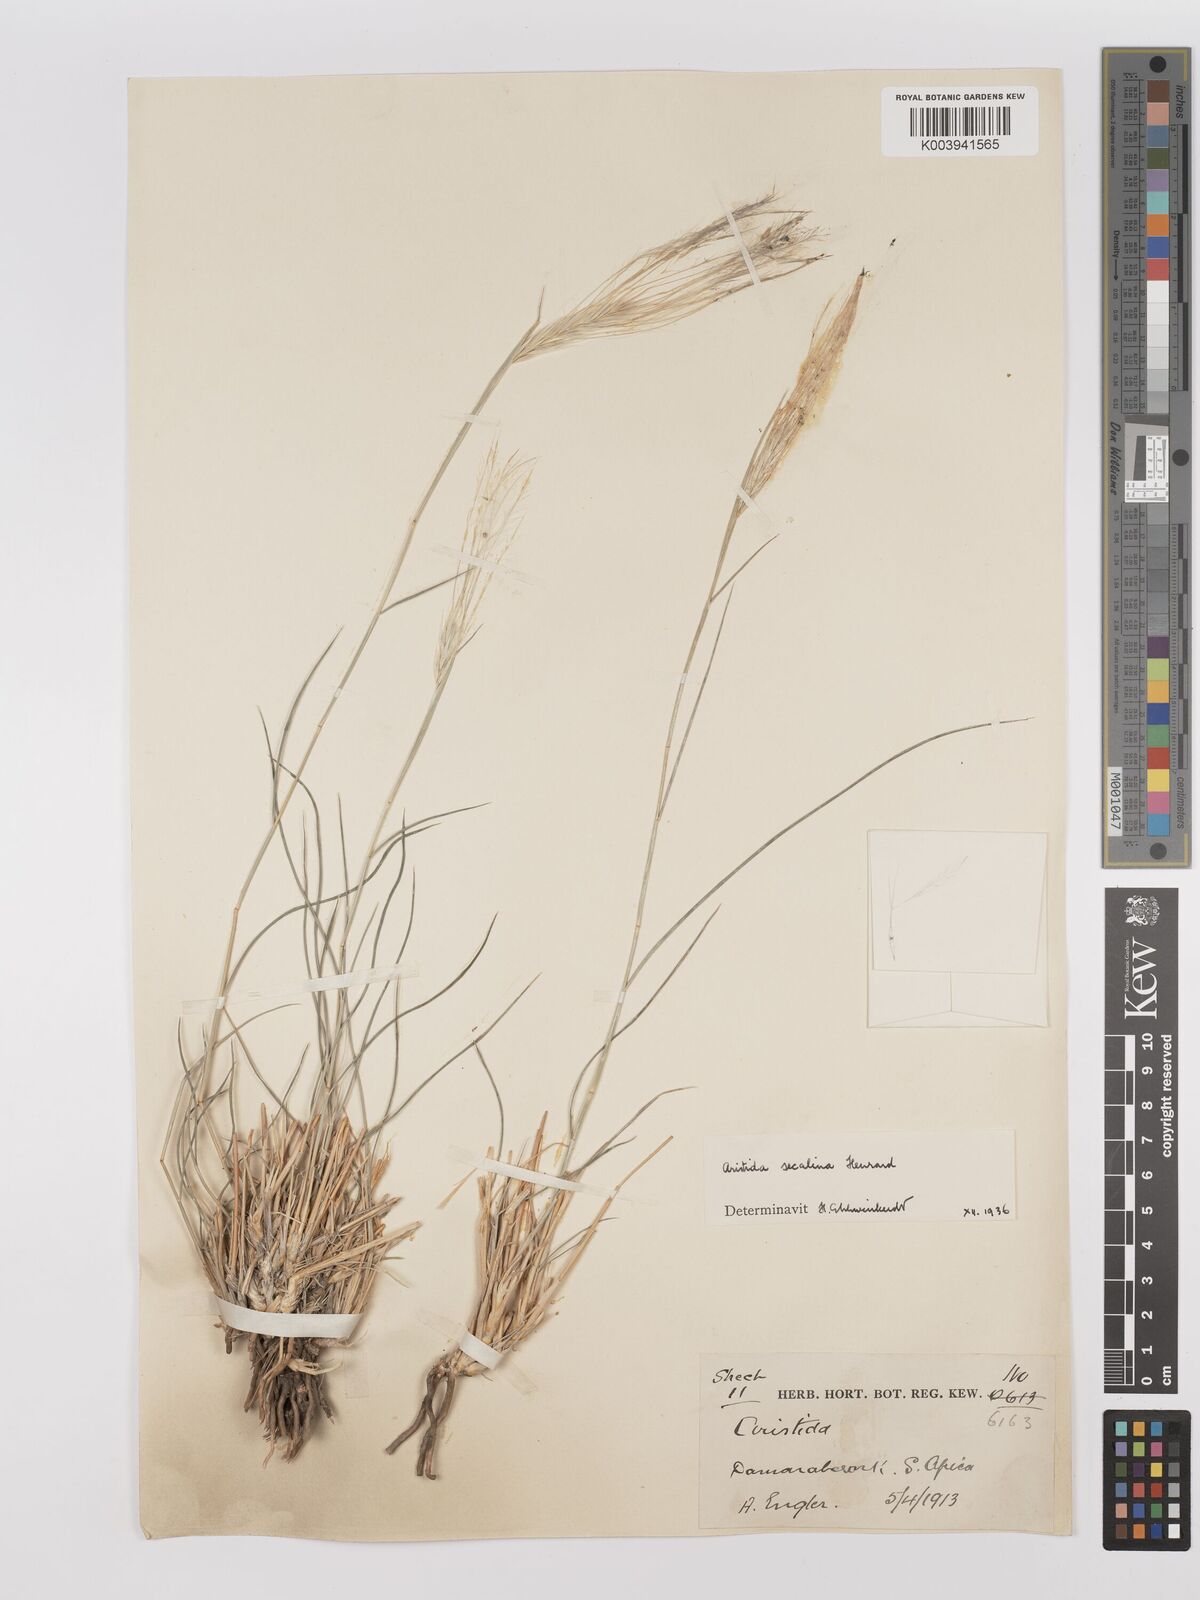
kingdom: Plantae
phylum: Tracheophyta
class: Liliopsida
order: Poales
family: Poaceae
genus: Stipagrostis
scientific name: Stipagrostis hochstetteriana
